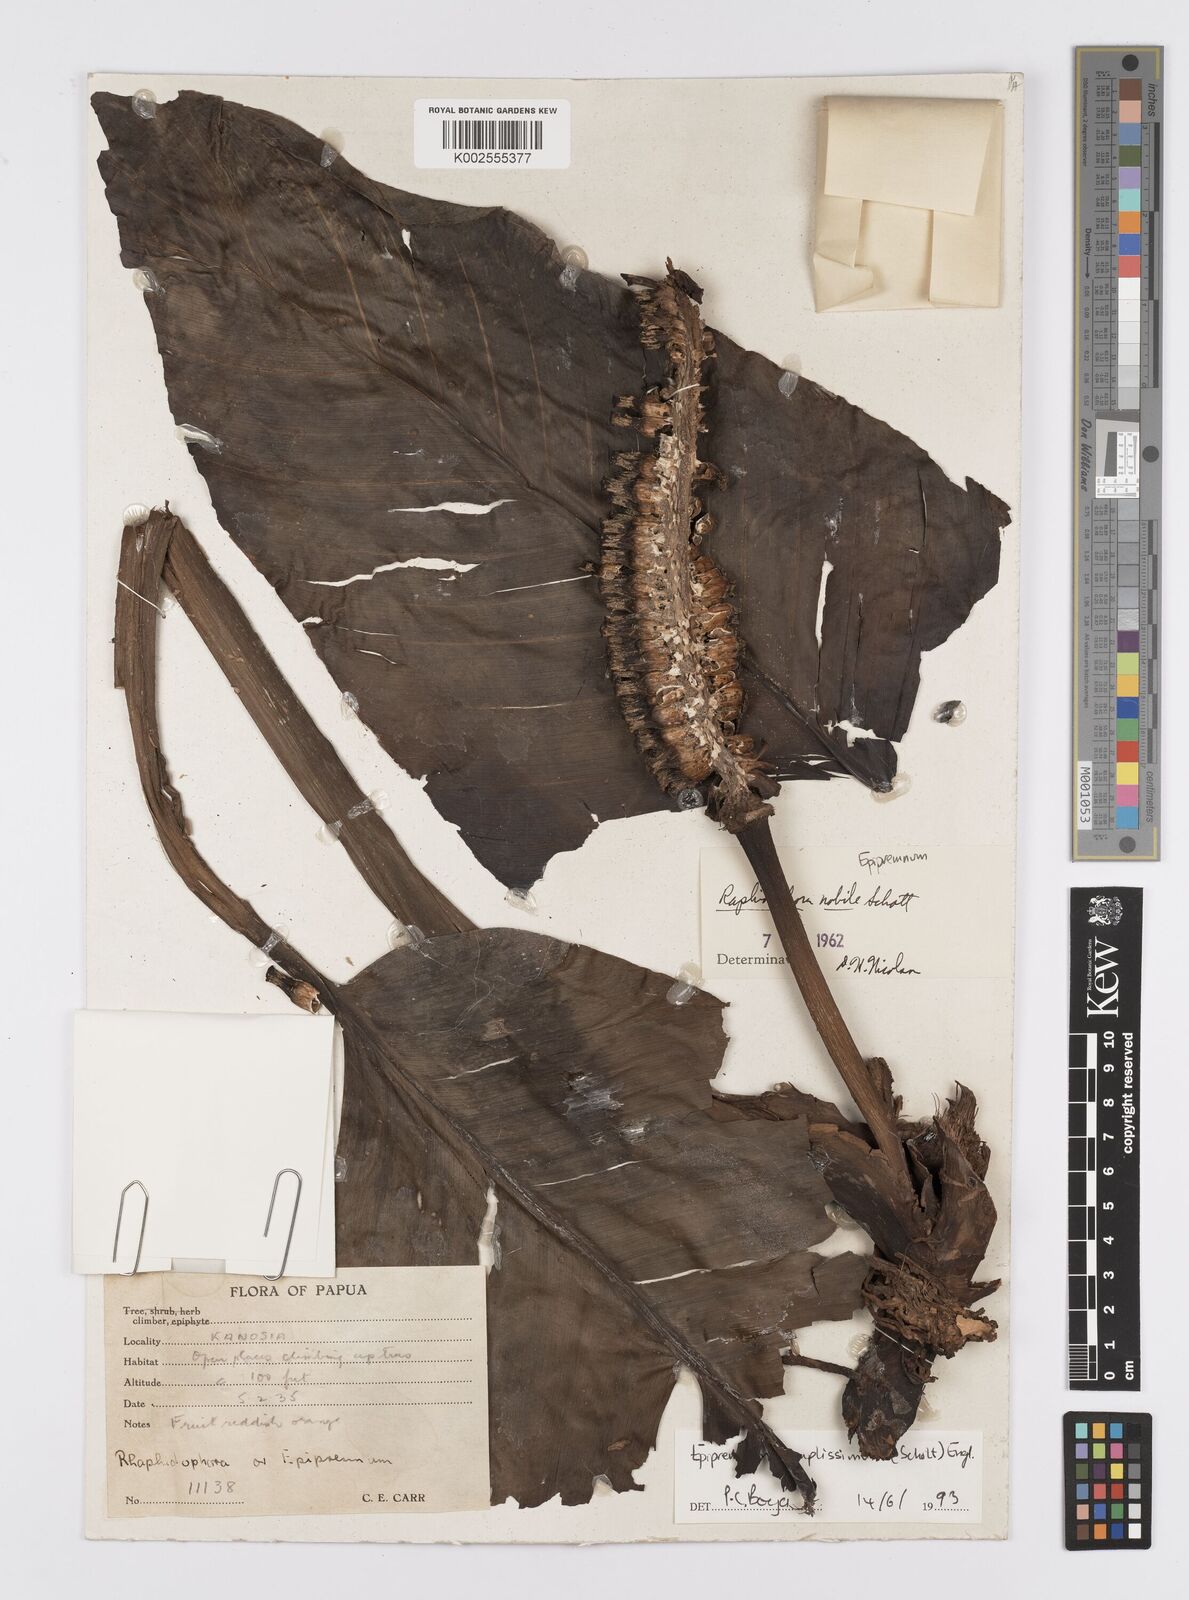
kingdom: Plantae
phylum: Tracheophyta
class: Liliopsida
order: Alismatales
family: Araceae
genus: Epipremnum
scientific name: Epipremnum amplissimum
